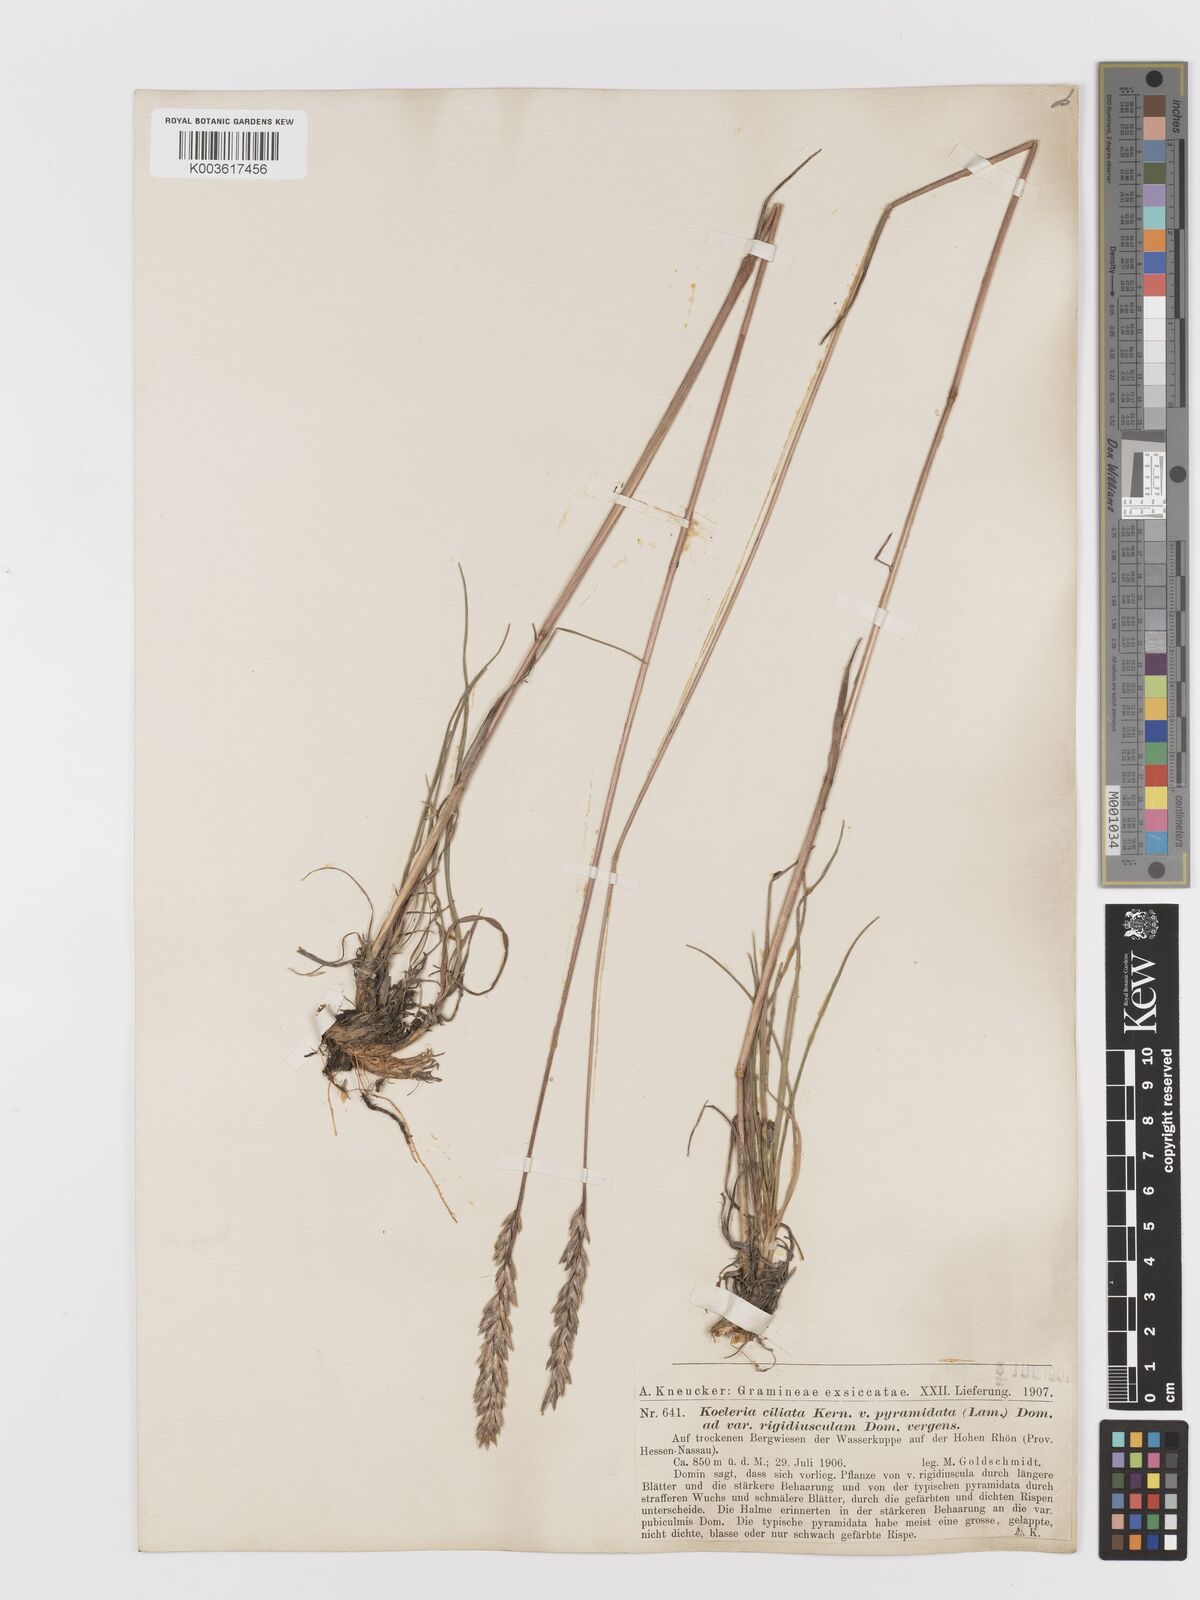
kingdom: Plantae
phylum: Tracheophyta
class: Liliopsida
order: Poales
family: Poaceae
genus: Koeleria
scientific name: Koeleria pyramidata
